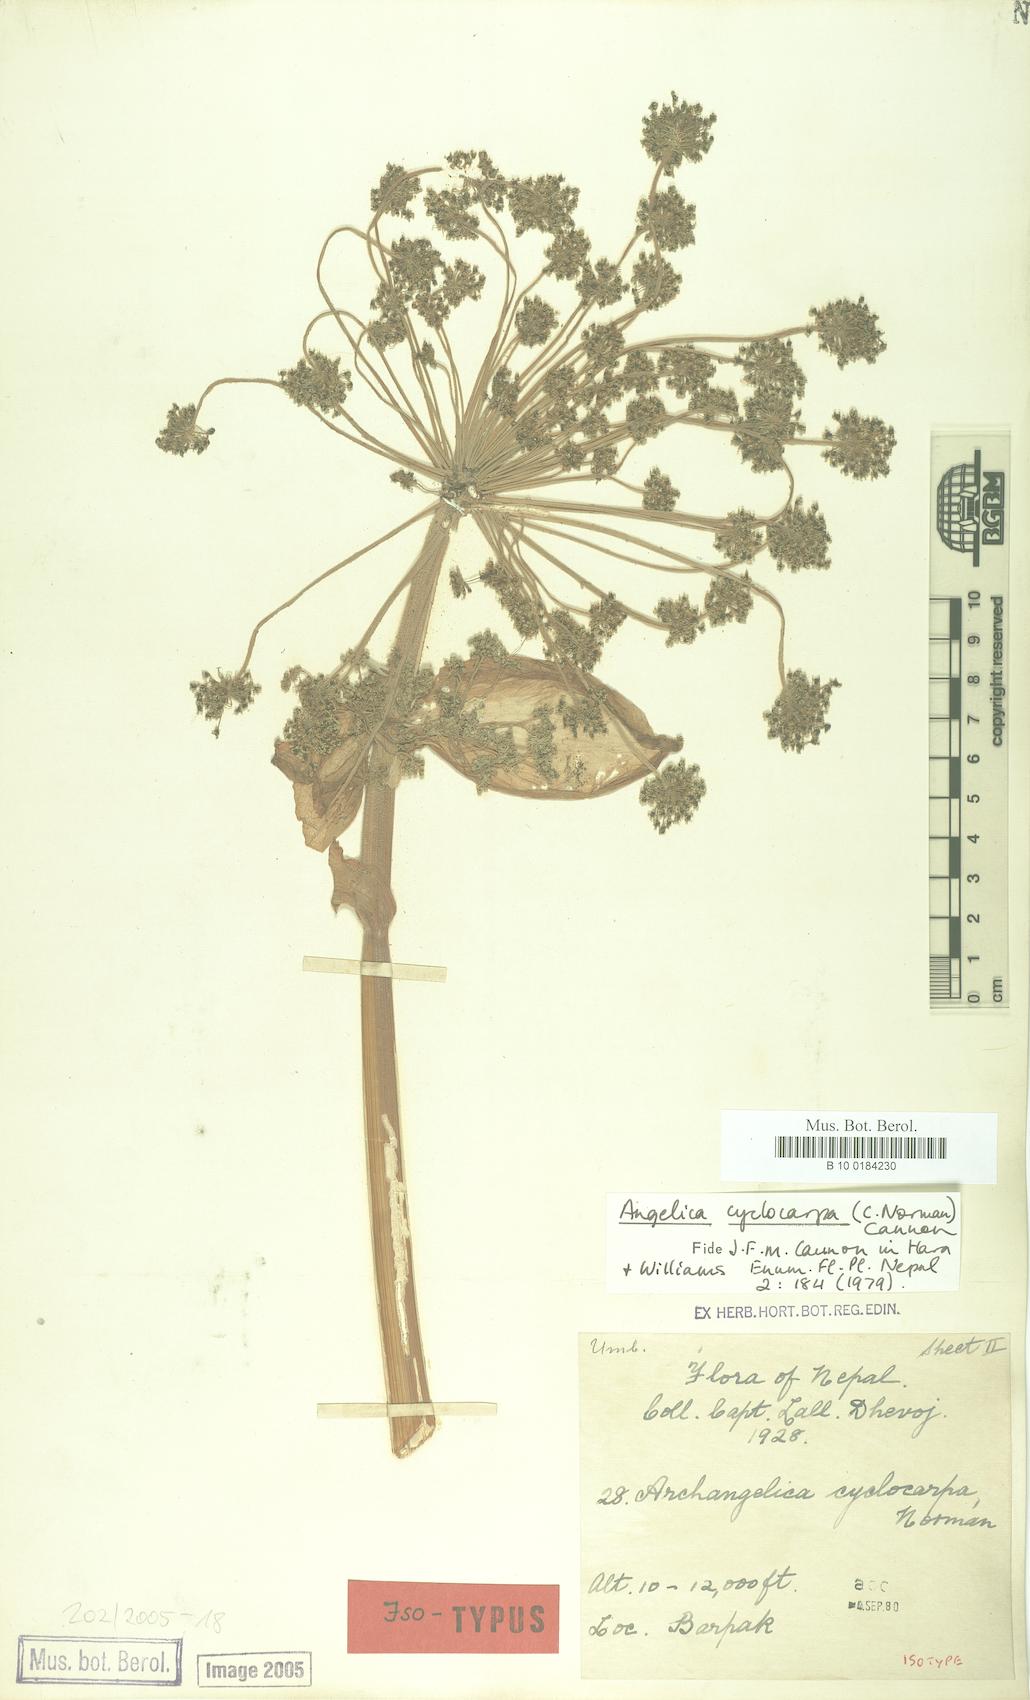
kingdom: Plantae
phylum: Tracheophyta
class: Magnoliopsida
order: Apiales
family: Apiaceae
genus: Angelica
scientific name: Angelica cyclocarpa
